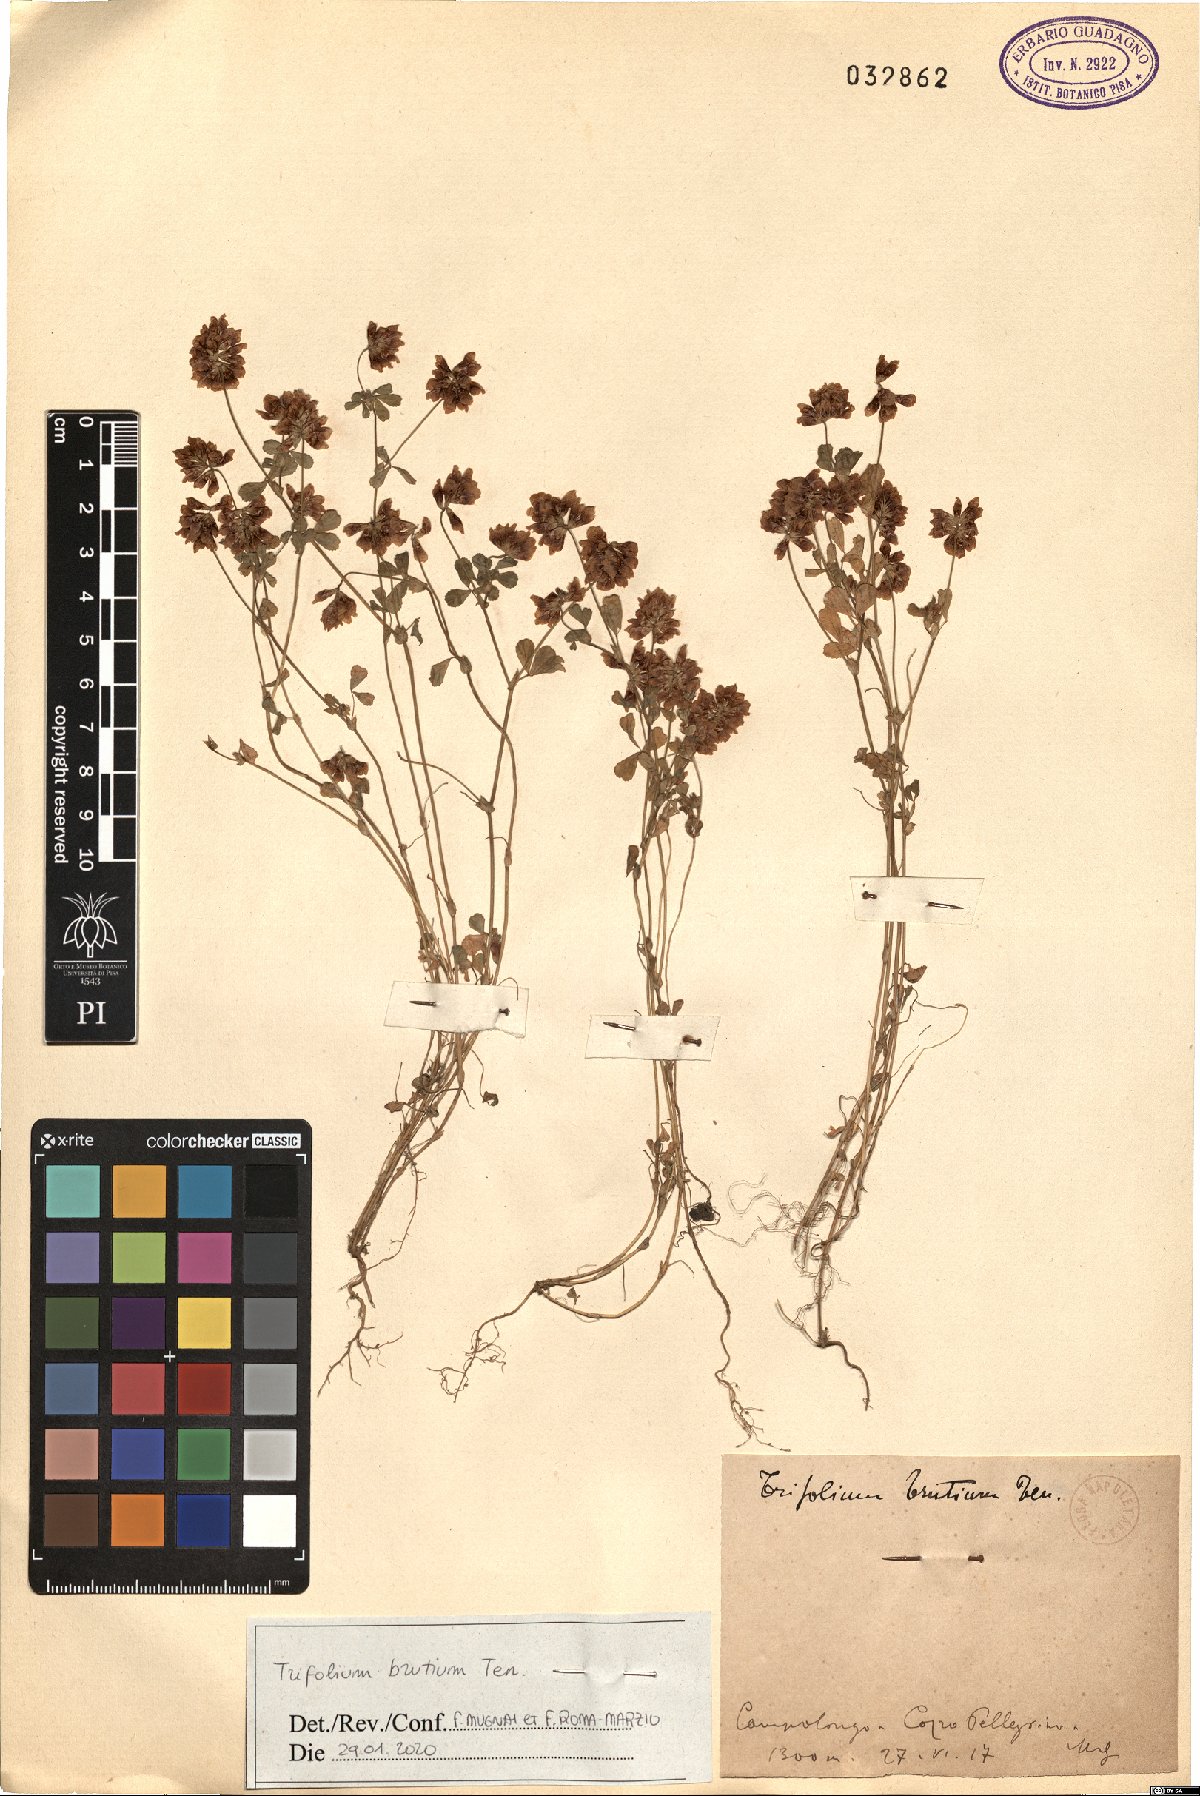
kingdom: Plantae
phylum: Tracheophyta
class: Magnoliopsida
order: Fabales
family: Fabaceae
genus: Trifolium
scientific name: Trifolium brutium
